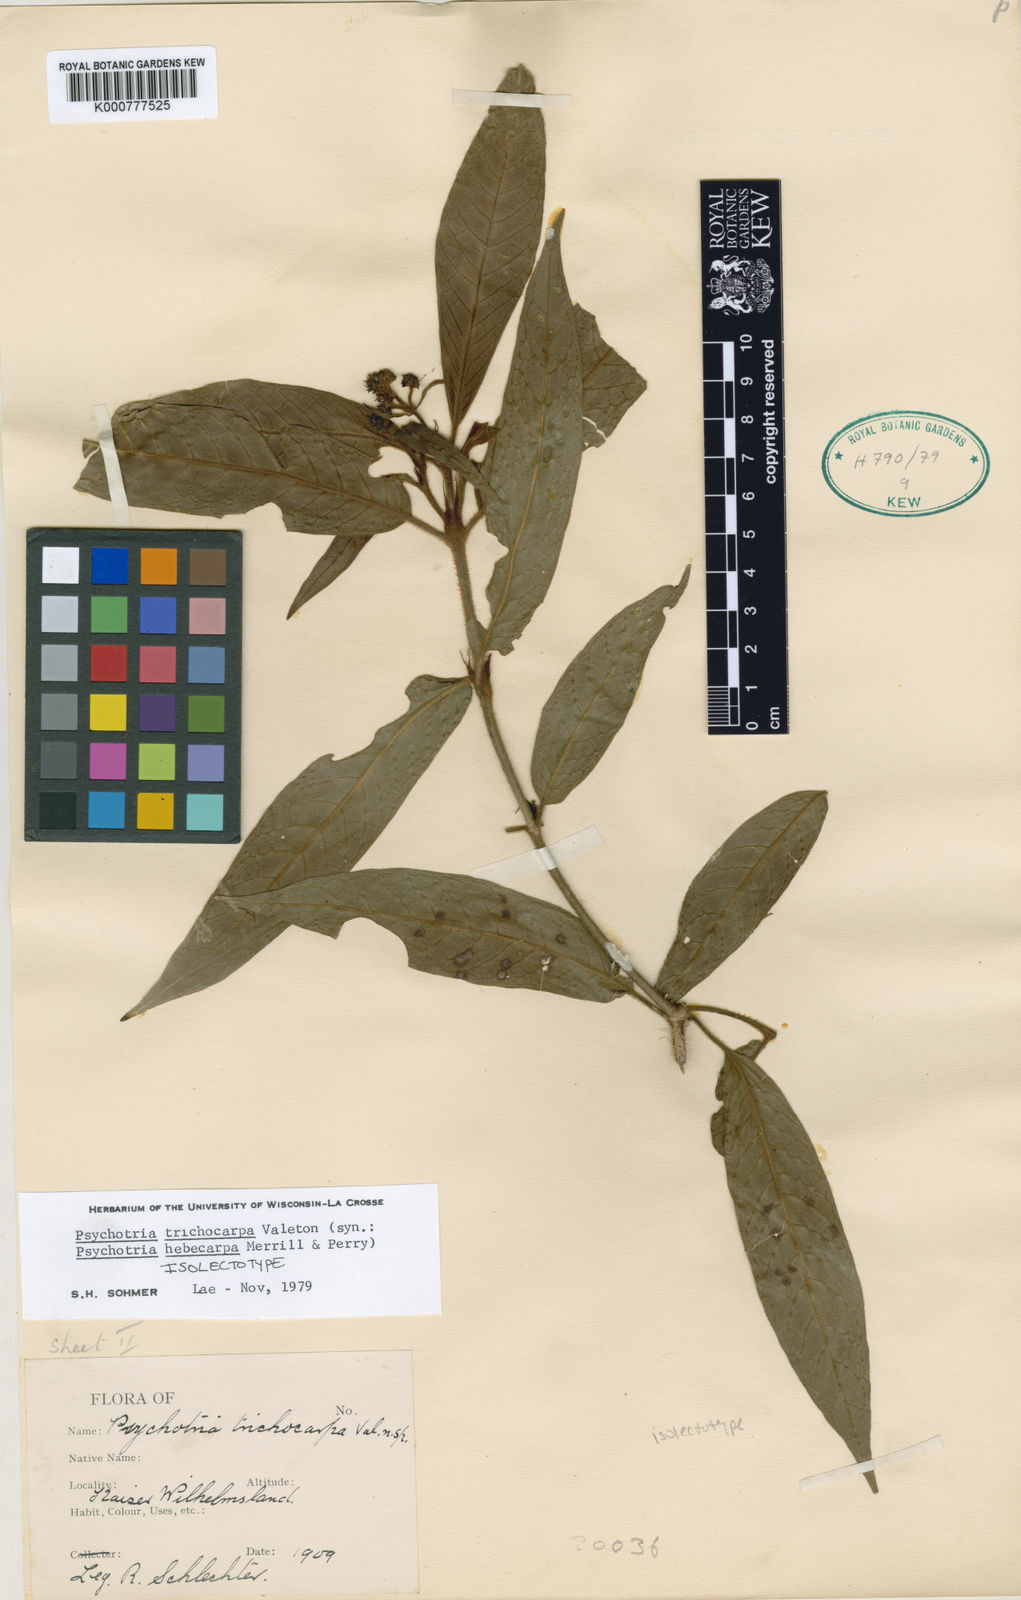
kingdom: Plantae
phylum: Tracheophyta
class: Magnoliopsida
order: Gentianales
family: Rubiaceae
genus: Psychotria
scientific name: Psychotria trichocarpa
